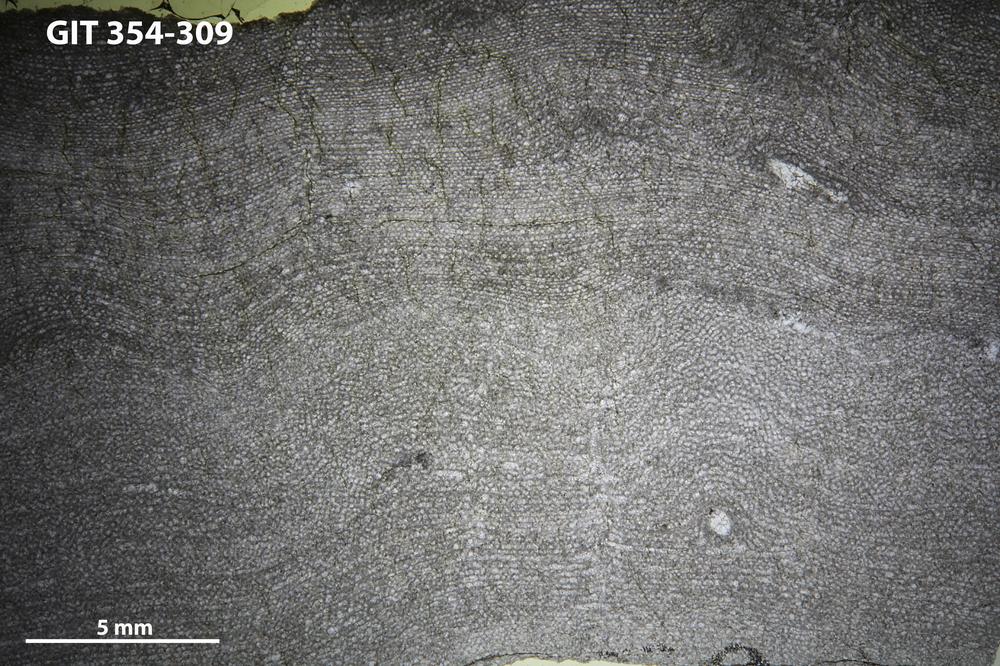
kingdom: Animalia
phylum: Porifera
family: Clathrodictyidae
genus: Clathrodictyon
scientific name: Clathrodictyon kudriavzevi
